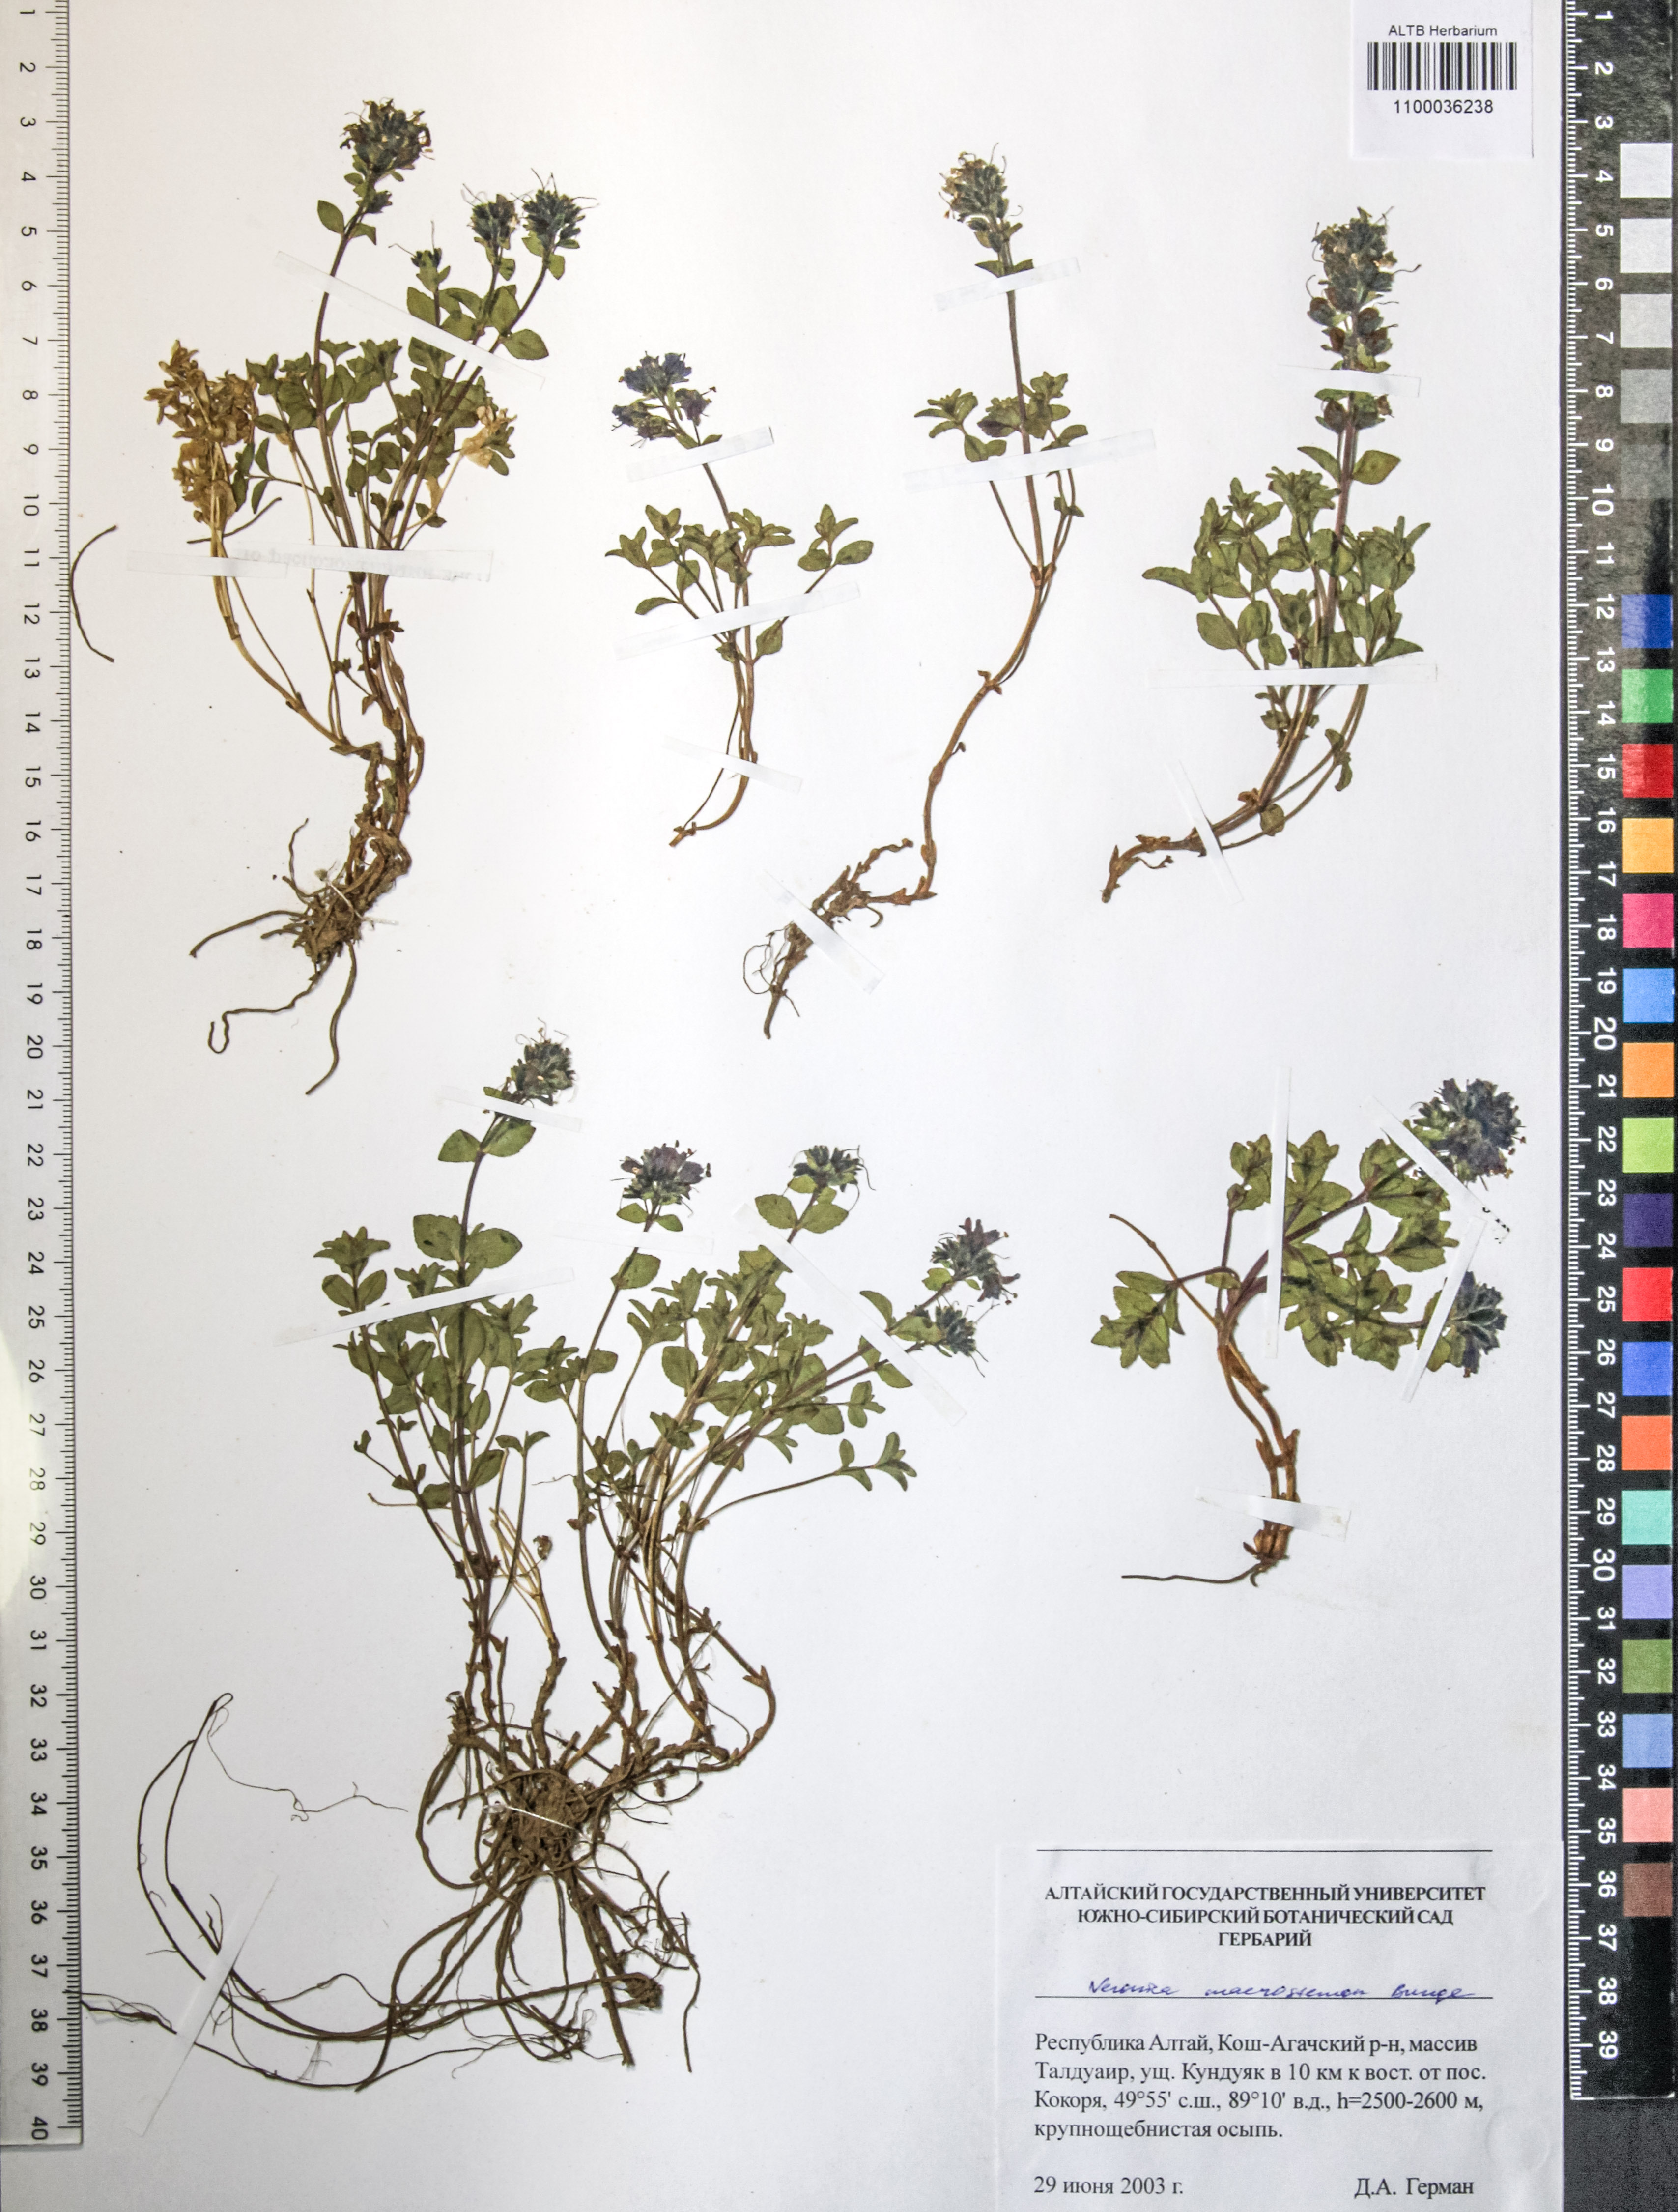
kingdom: Plantae
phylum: Tracheophyta
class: Magnoliopsida
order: Lamiales
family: Plantaginaceae
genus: Veronica
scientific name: Veronica macrostemon
